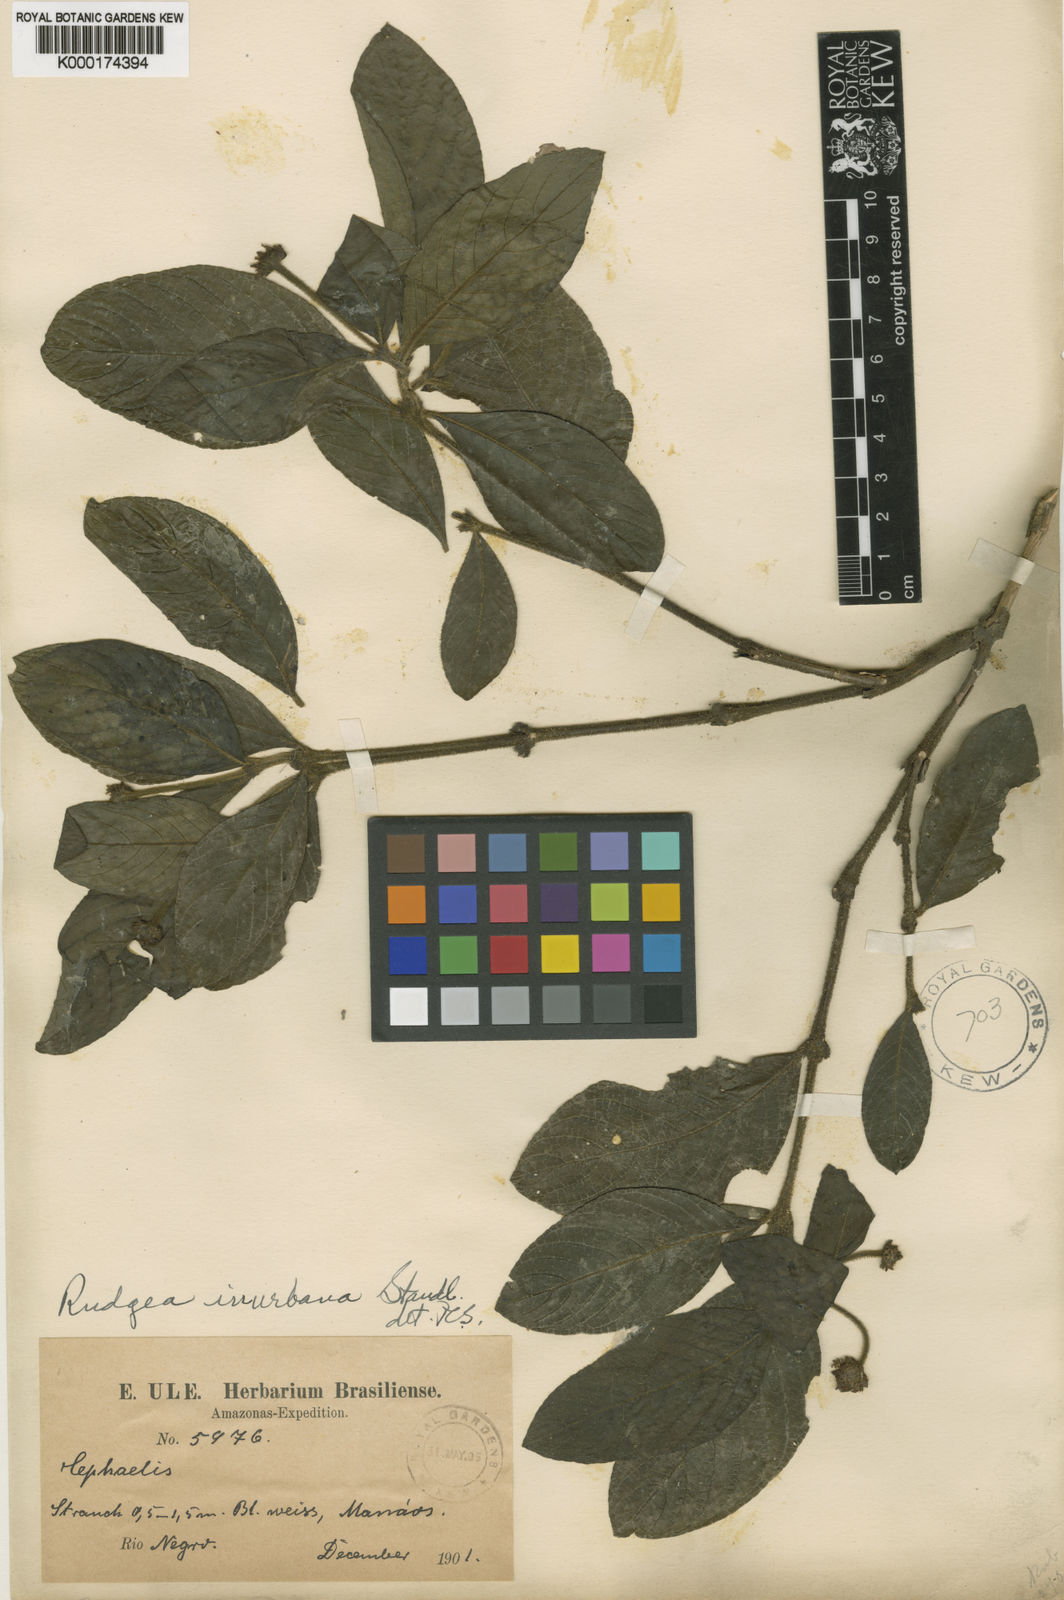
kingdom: Plantae
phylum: Tracheophyta
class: Magnoliopsida
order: Gentianales
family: Rubiaceae
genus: Psychotria
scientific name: Psychotria
